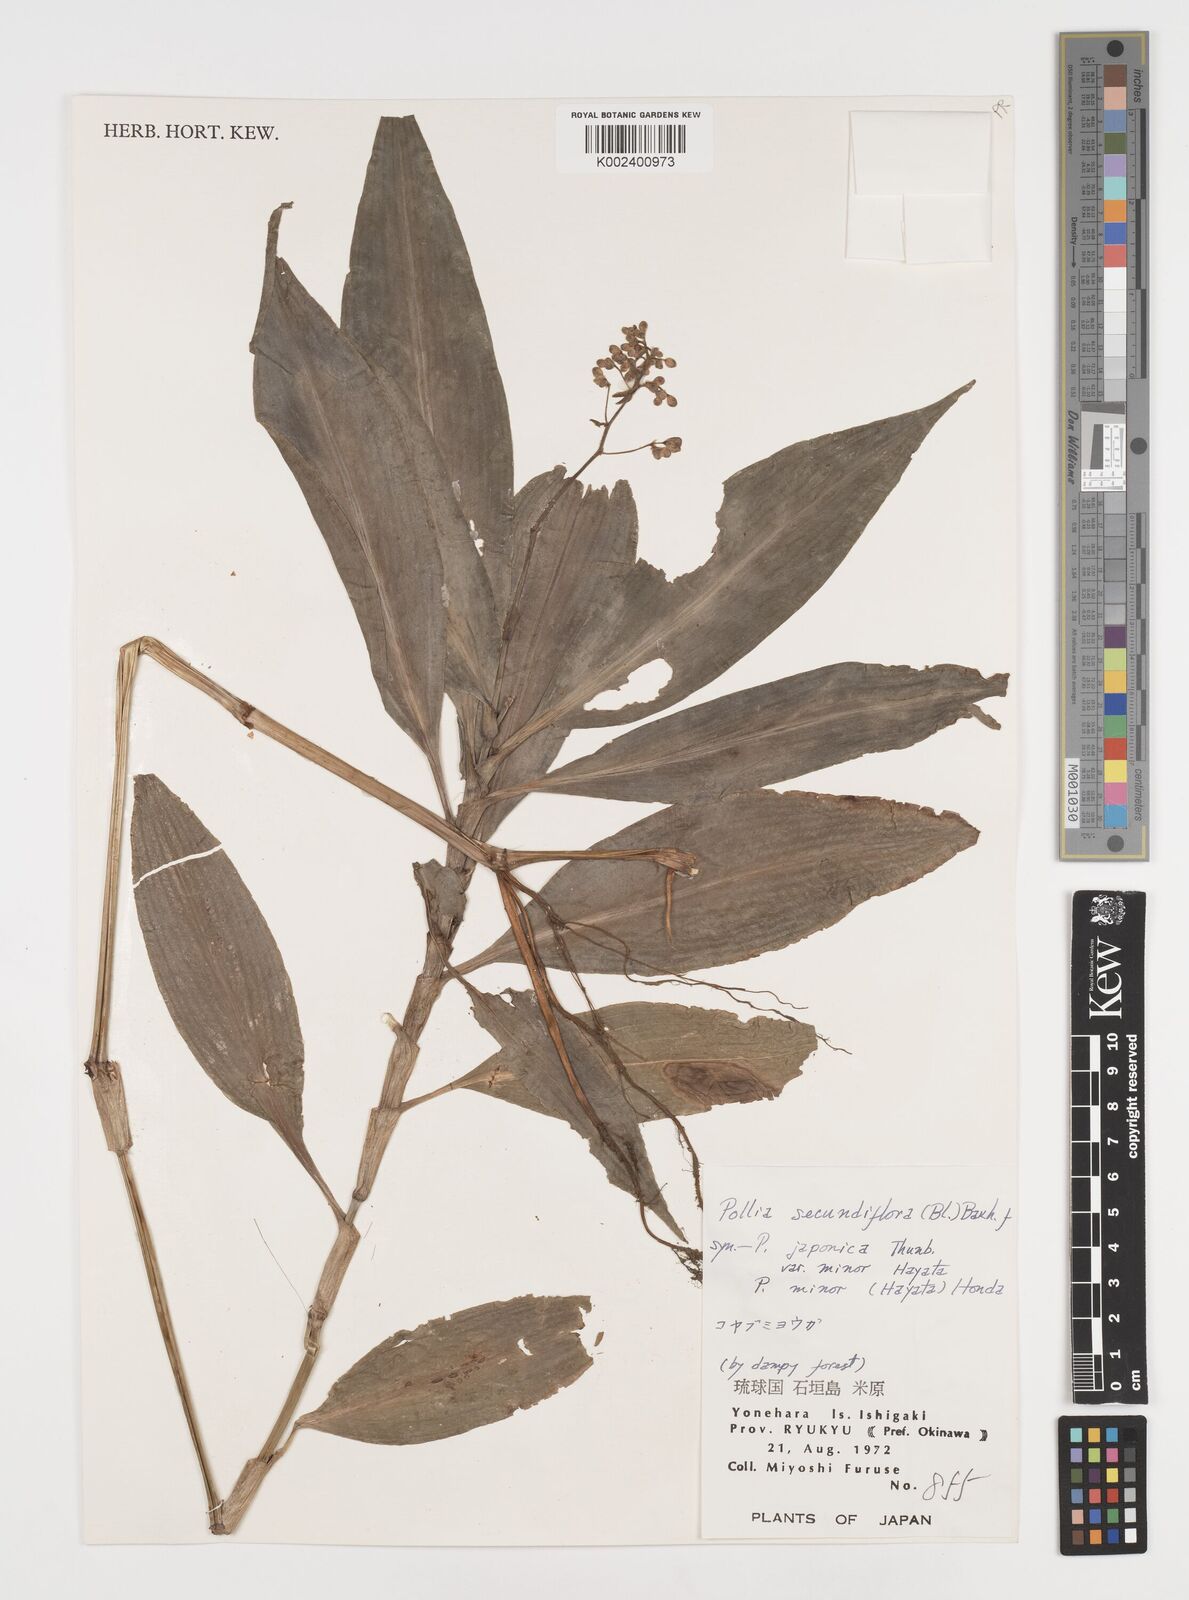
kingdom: Plantae
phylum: Tracheophyta
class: Liliopsida
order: Commelinales
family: Commelinaceae
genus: Pollia
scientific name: Pollia secundiflora
